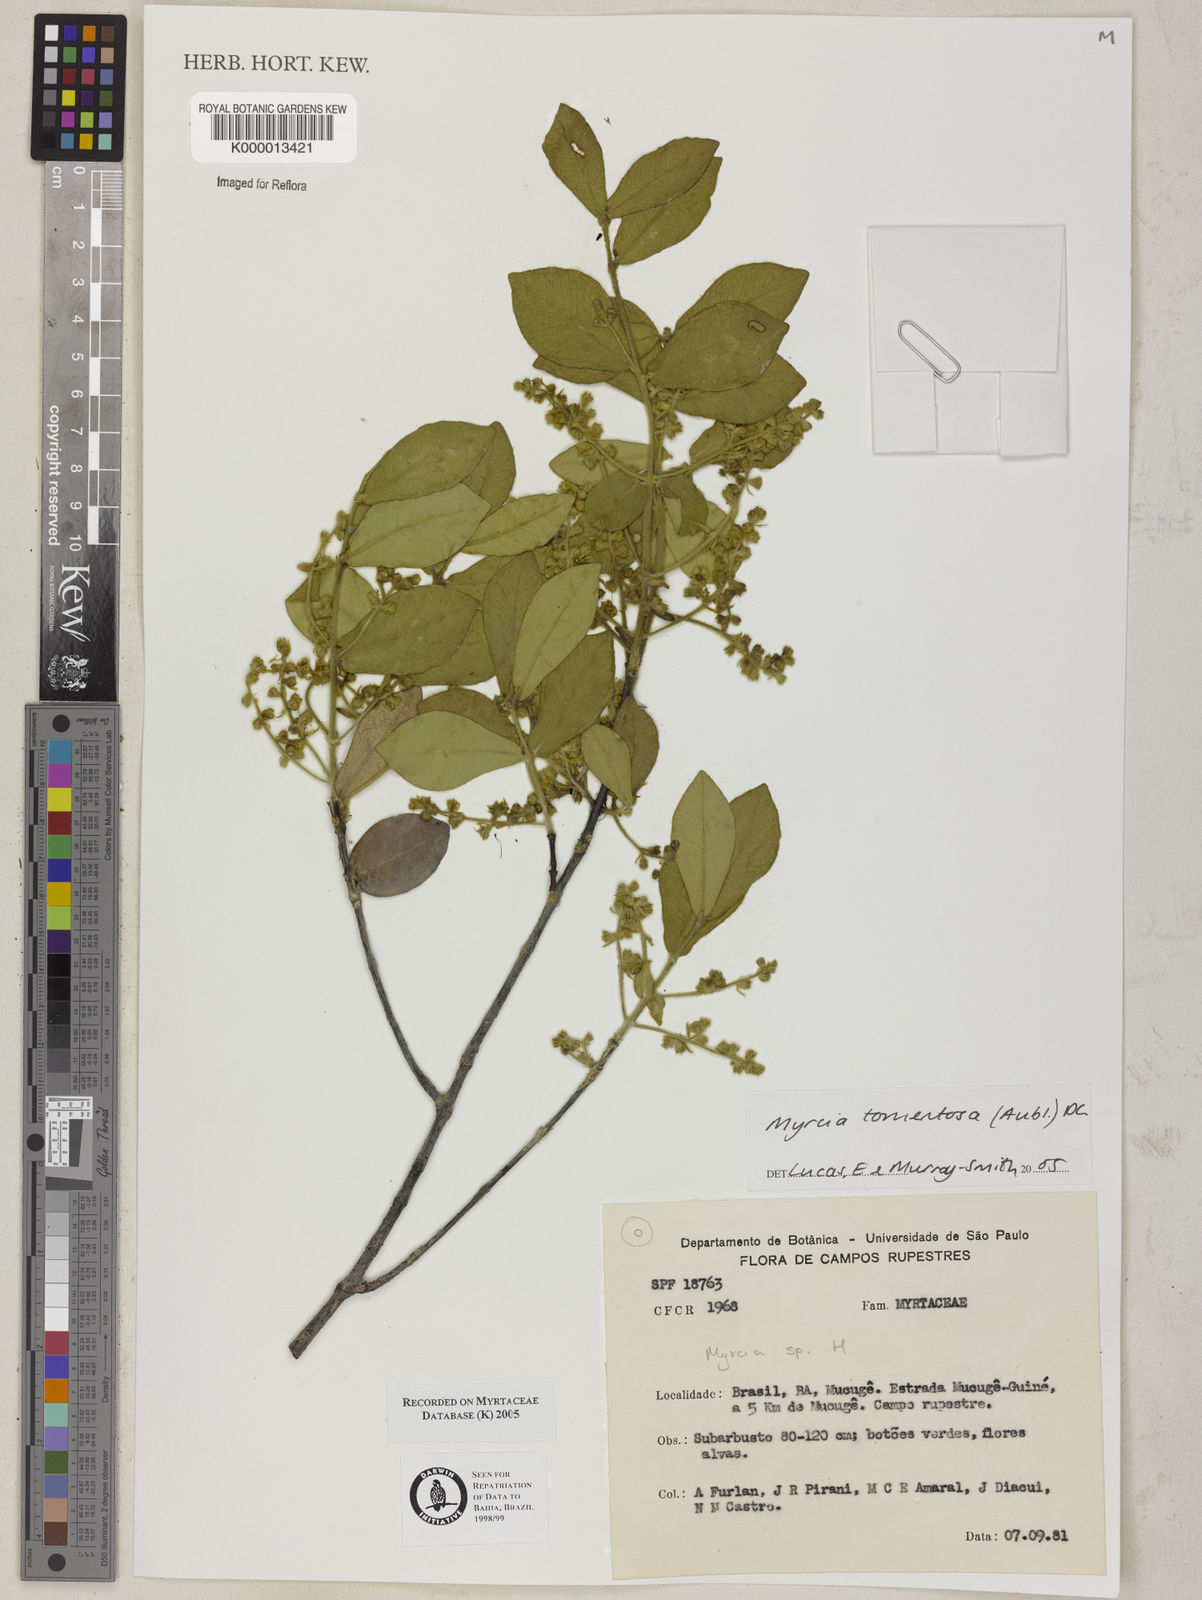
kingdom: Plantae
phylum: Tracheophyta
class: Magnoliopsida
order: Myrtales
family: Myrtaceae
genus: Myrcia
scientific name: Myrcia
